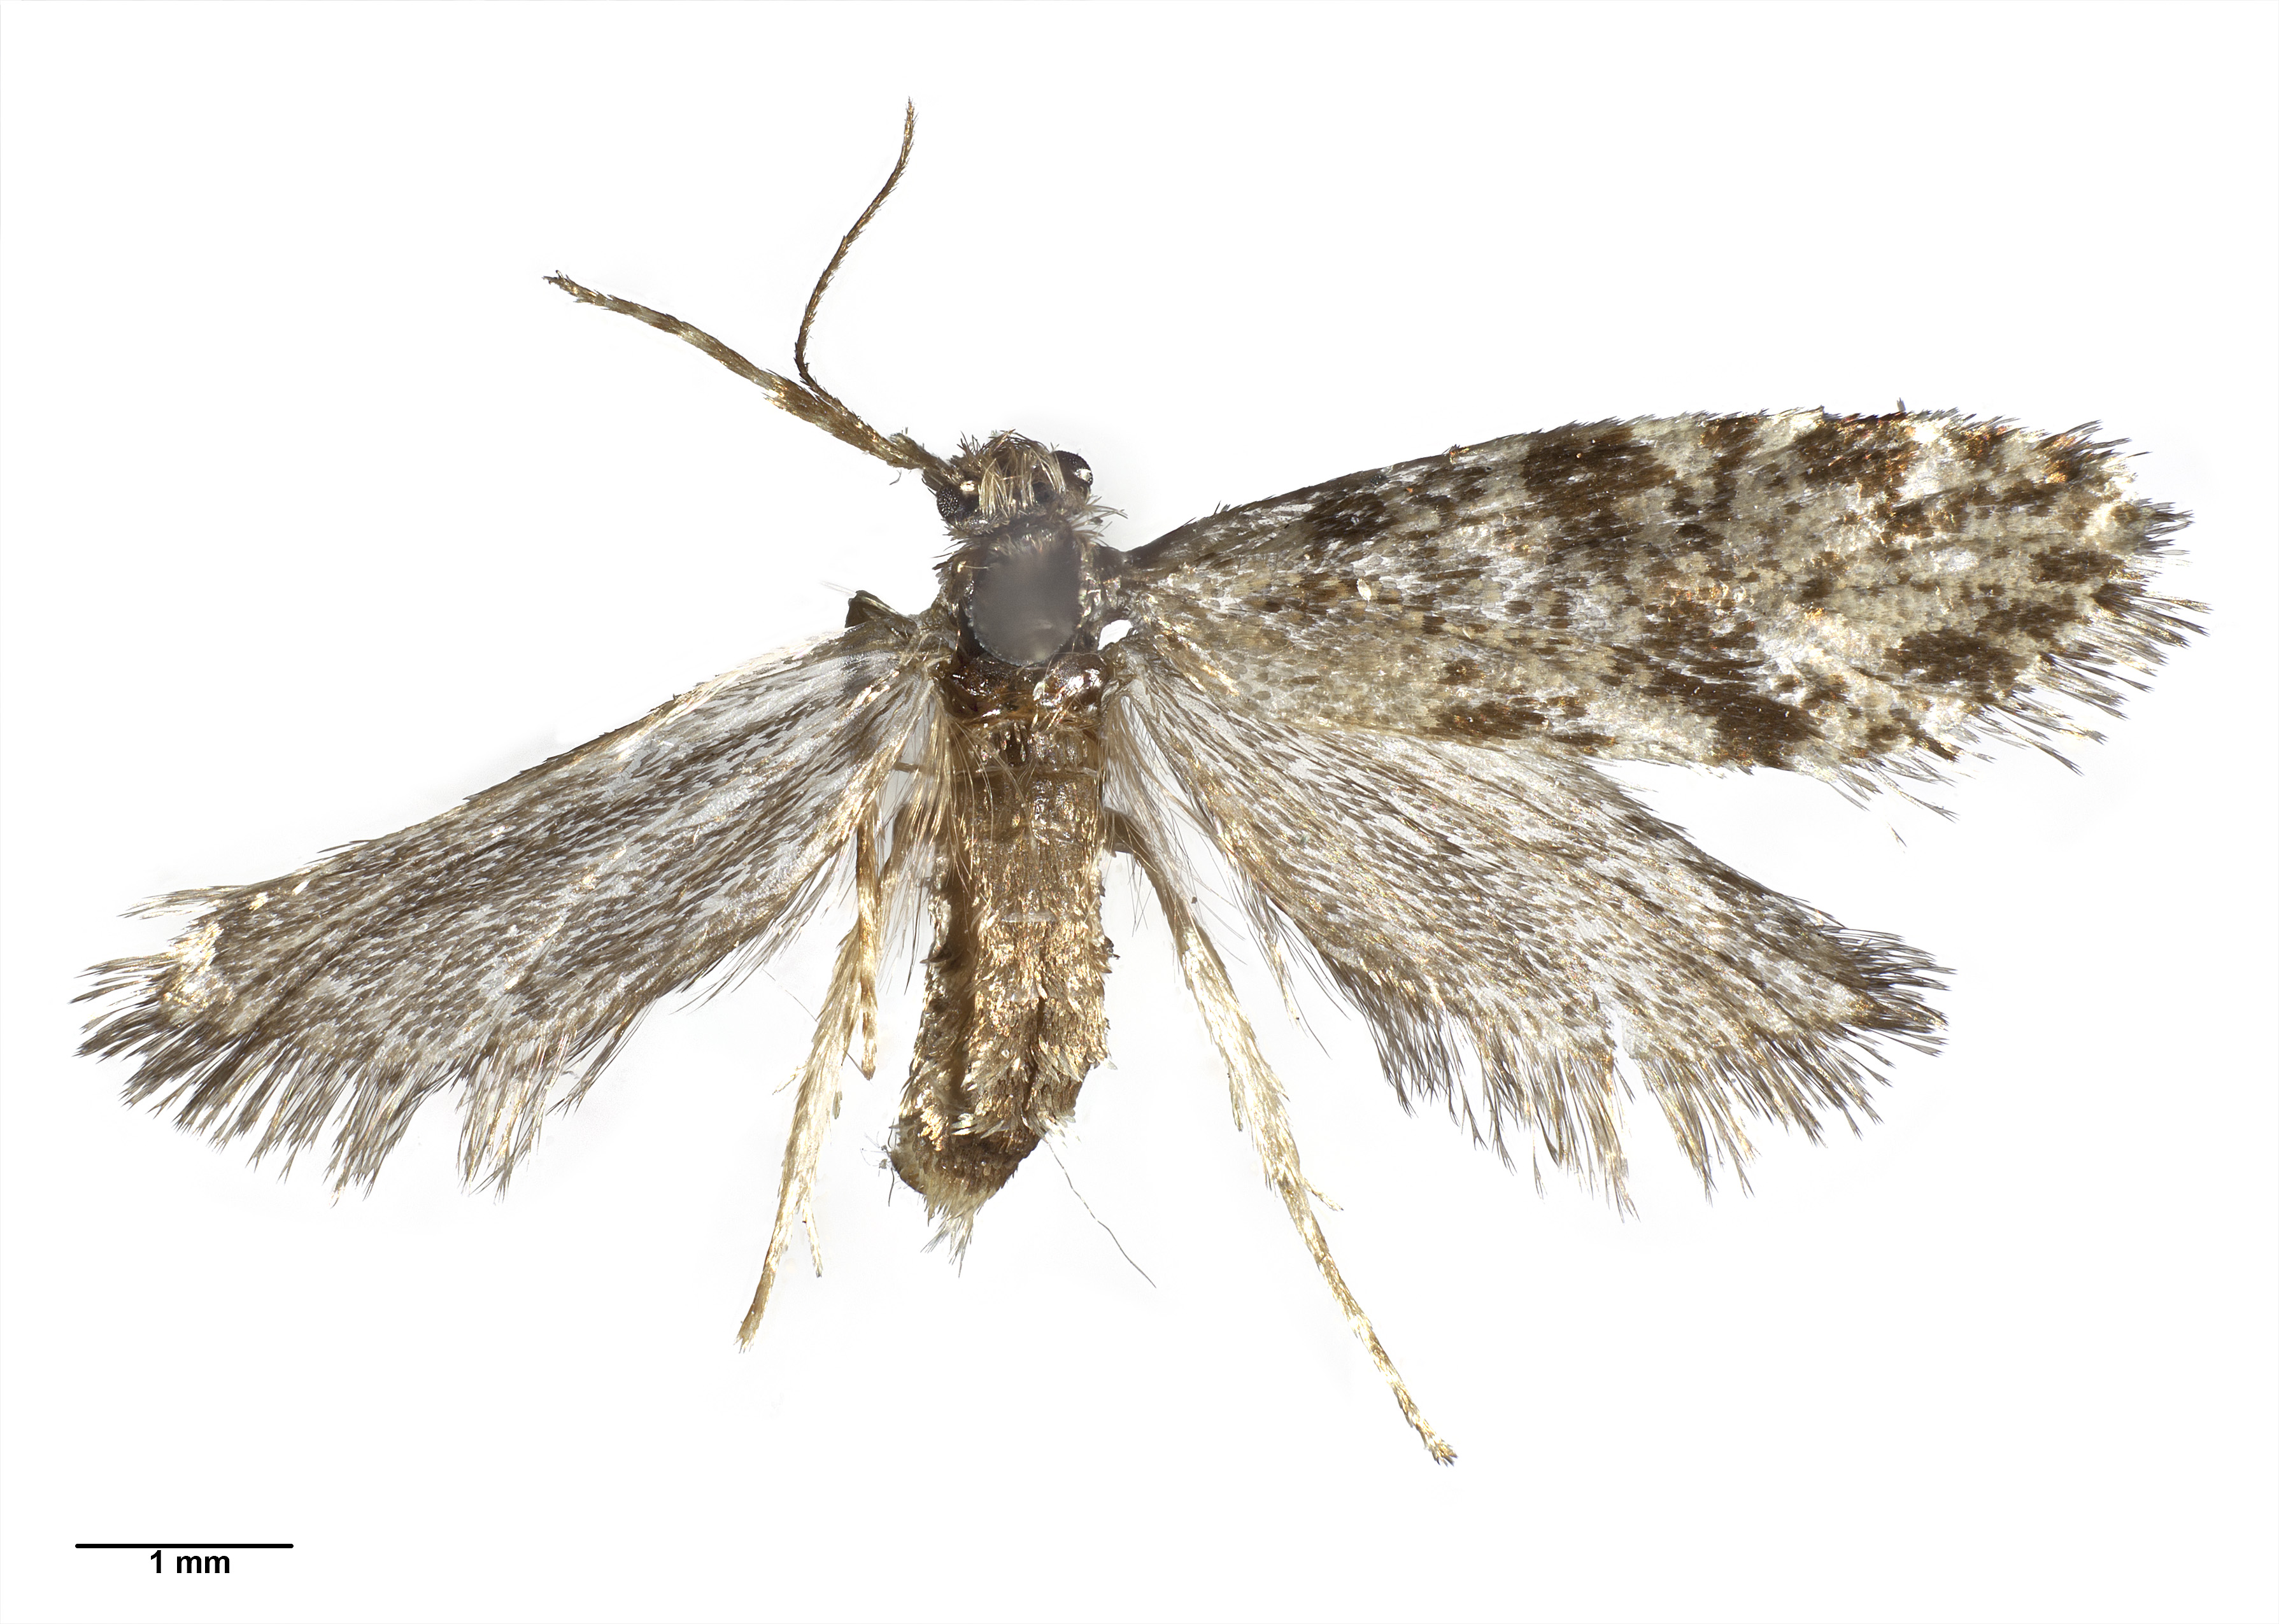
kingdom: Animalia
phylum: Arthropoda
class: Insecta
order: Lepidoptera
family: Psychidae
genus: Mallobathra
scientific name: Mallobathra cataclysma
